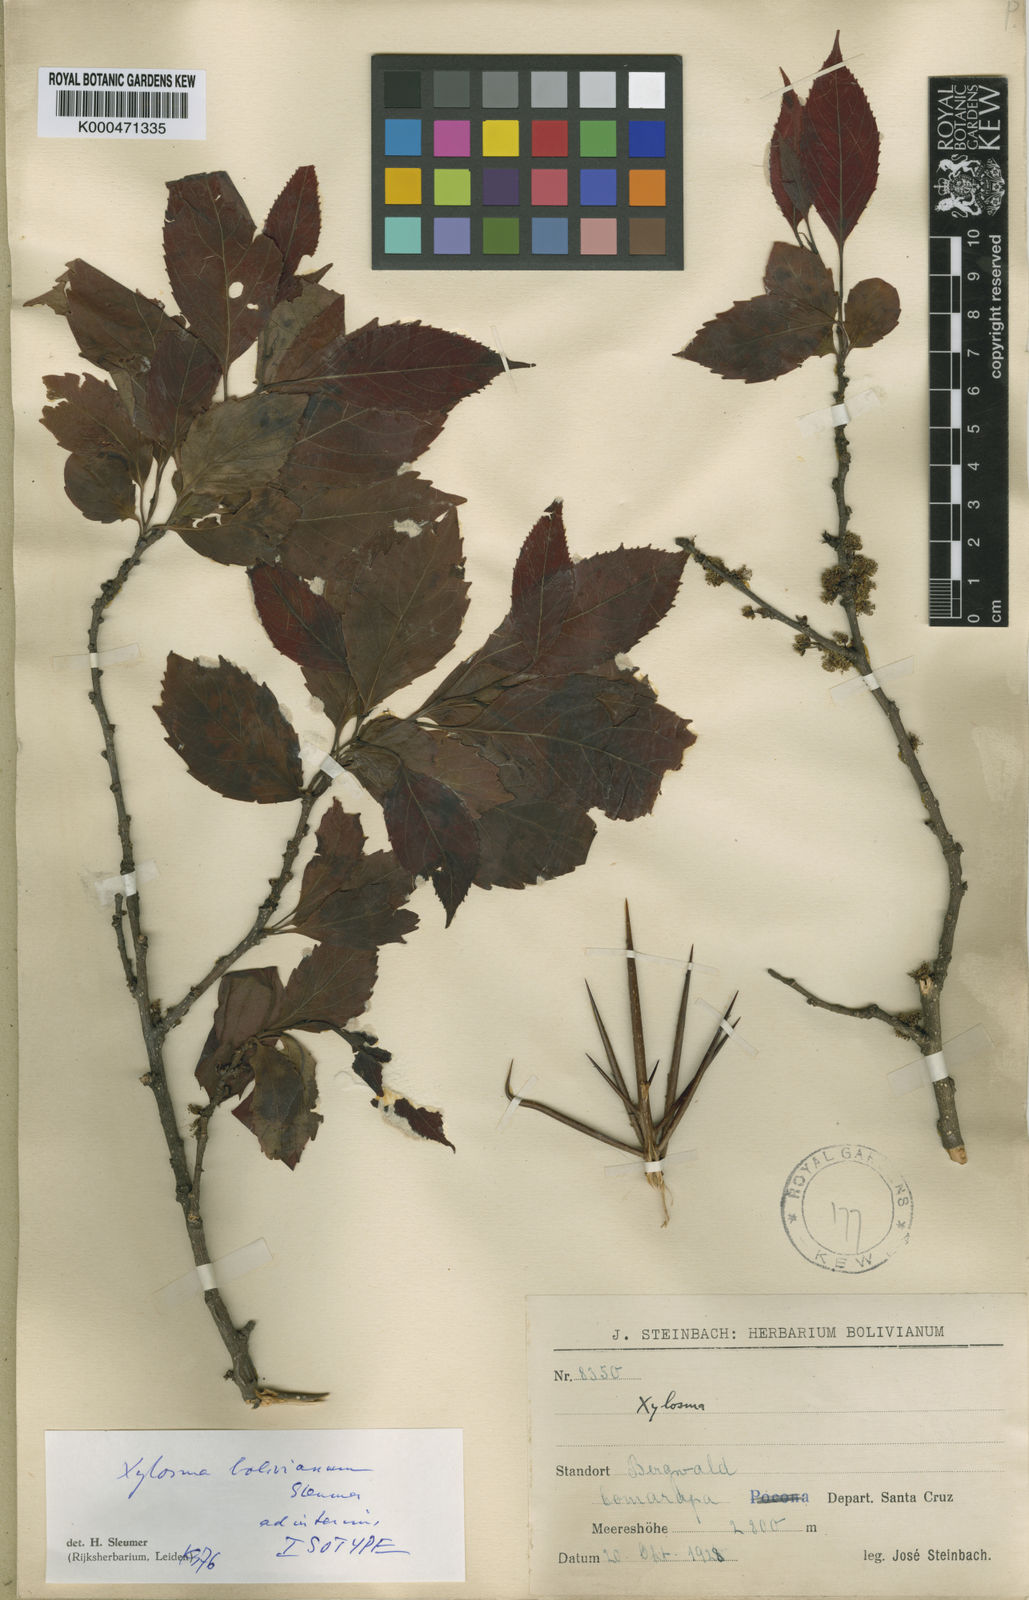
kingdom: Plantae
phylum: Tracheophyta
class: Magnoliopsida
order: Malpighiales
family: Salicaceae
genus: Xylosma
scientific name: Xylosma boliviana
